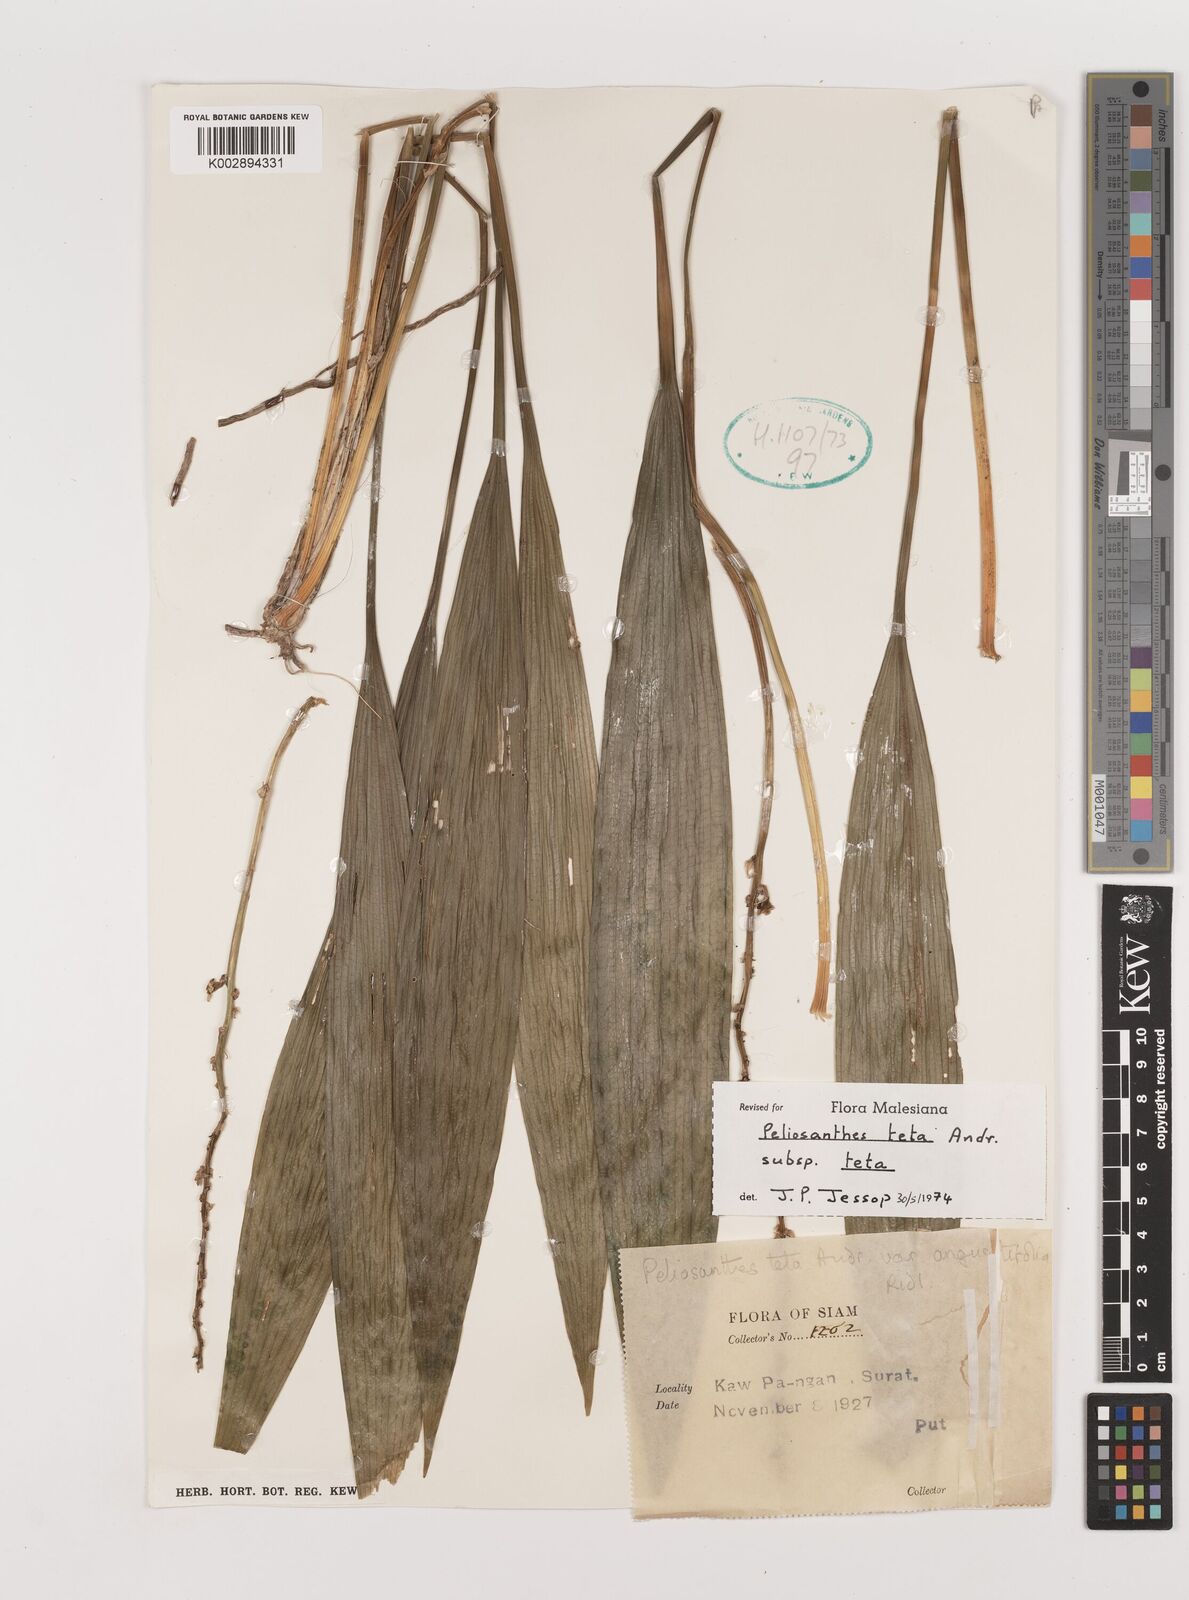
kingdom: Plantae
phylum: Tracheophyta
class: Liliopsida
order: Asparagales
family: Asparagaceae
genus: Peliosanthes
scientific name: Peliosanthes teta
